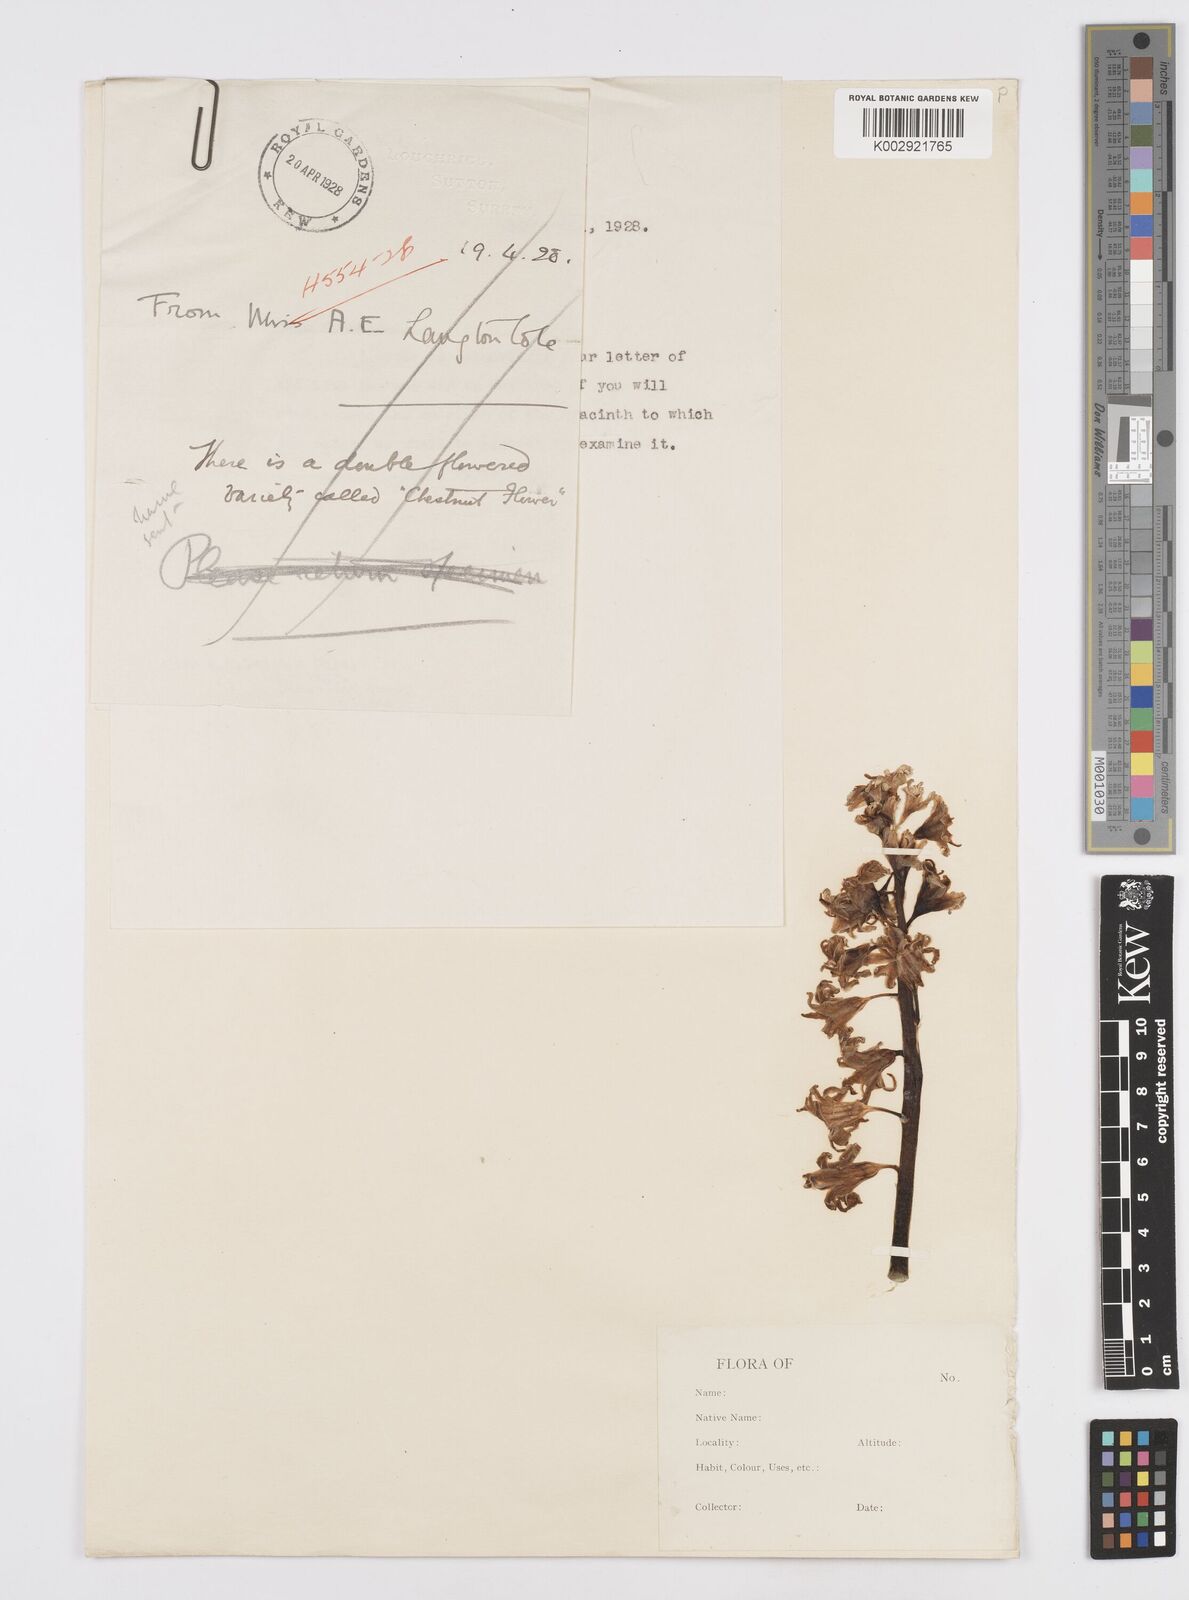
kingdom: Plantae
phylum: Tracheophyta
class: Liliopsida
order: Asparagales
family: Asparagaceae
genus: Hyacinthoides
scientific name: Hyacinthoides non-scripta
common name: Bluebell
